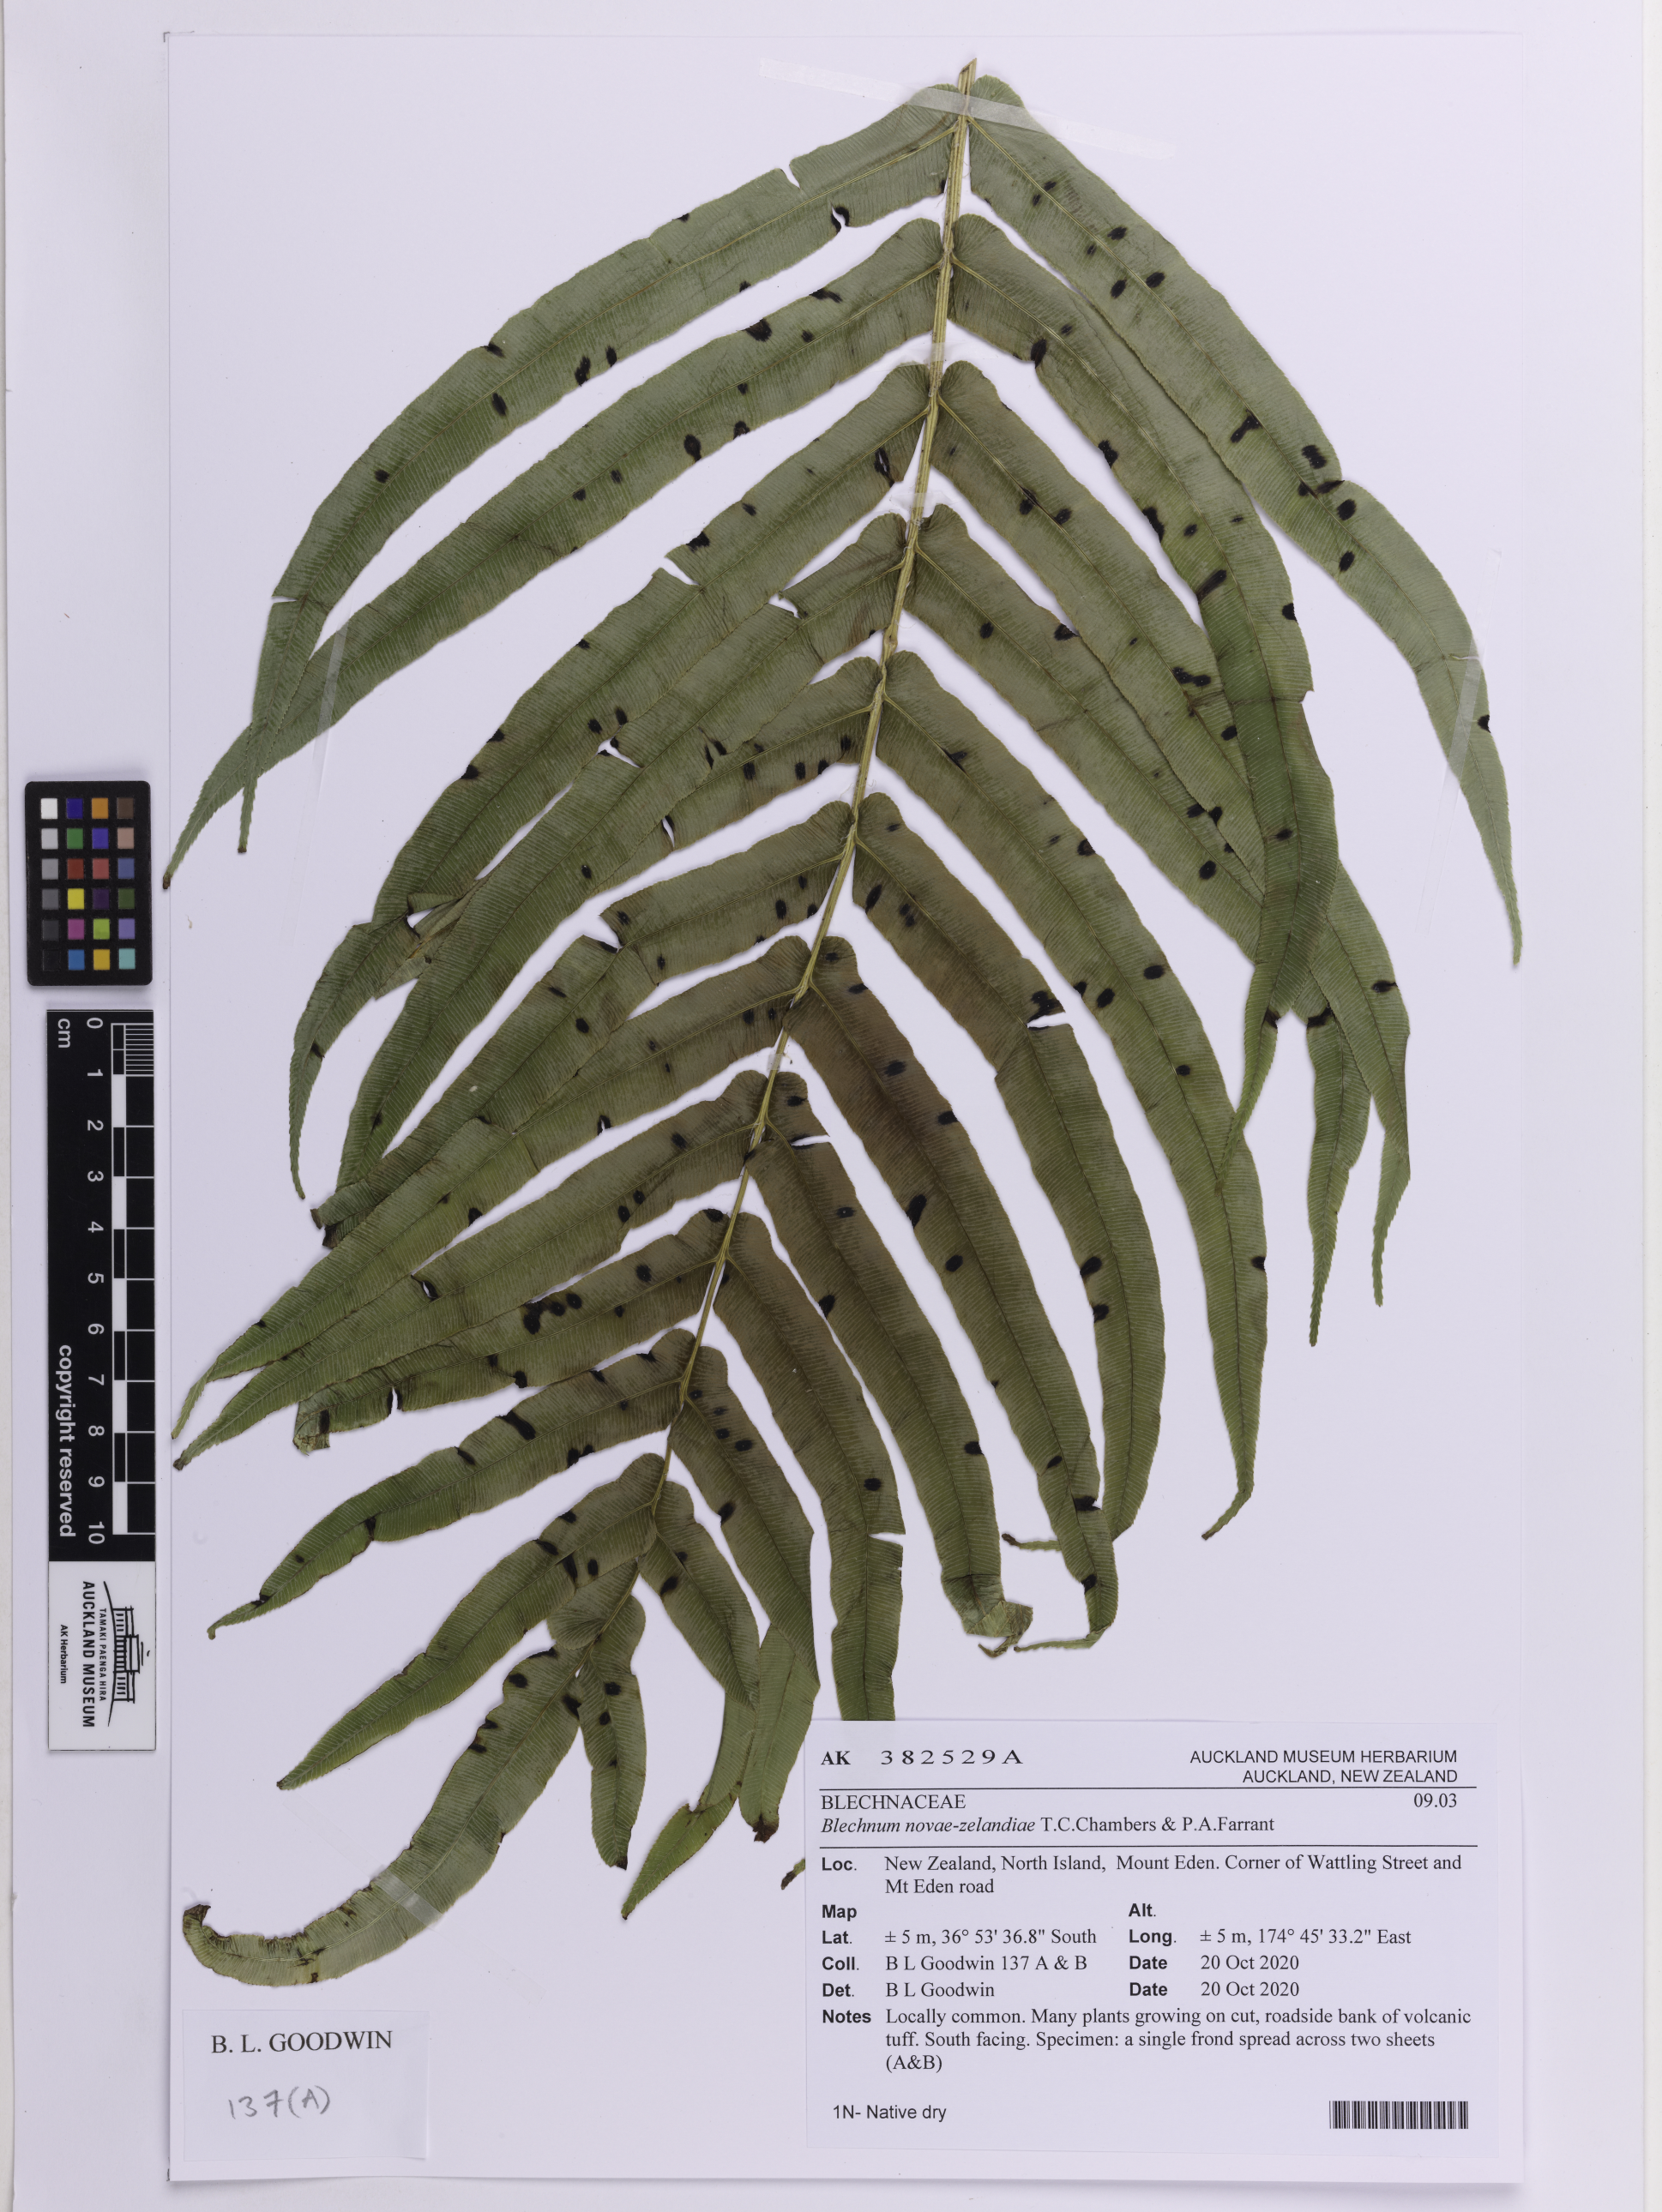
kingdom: Plantae
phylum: Tracheophyta
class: Polypodiopsida
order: Polypodiales
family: Blechnaceae
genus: Parablechnum
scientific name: Parablechnum novae-zelandiae
